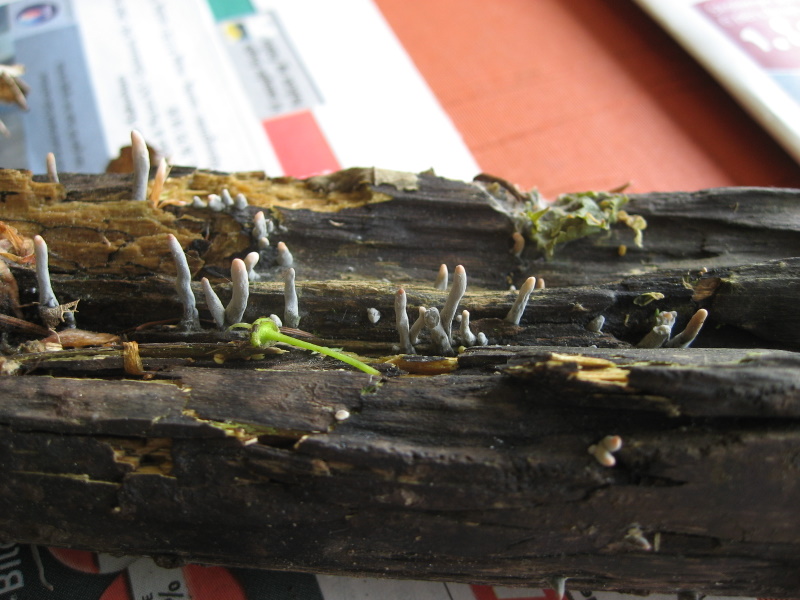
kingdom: Fungi
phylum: Ascomycota
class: Sordariomycetes
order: Xylariales
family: Xylariaceae
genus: Xylaria
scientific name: Xylaria hypoxylon
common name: grenet stødsvamp
